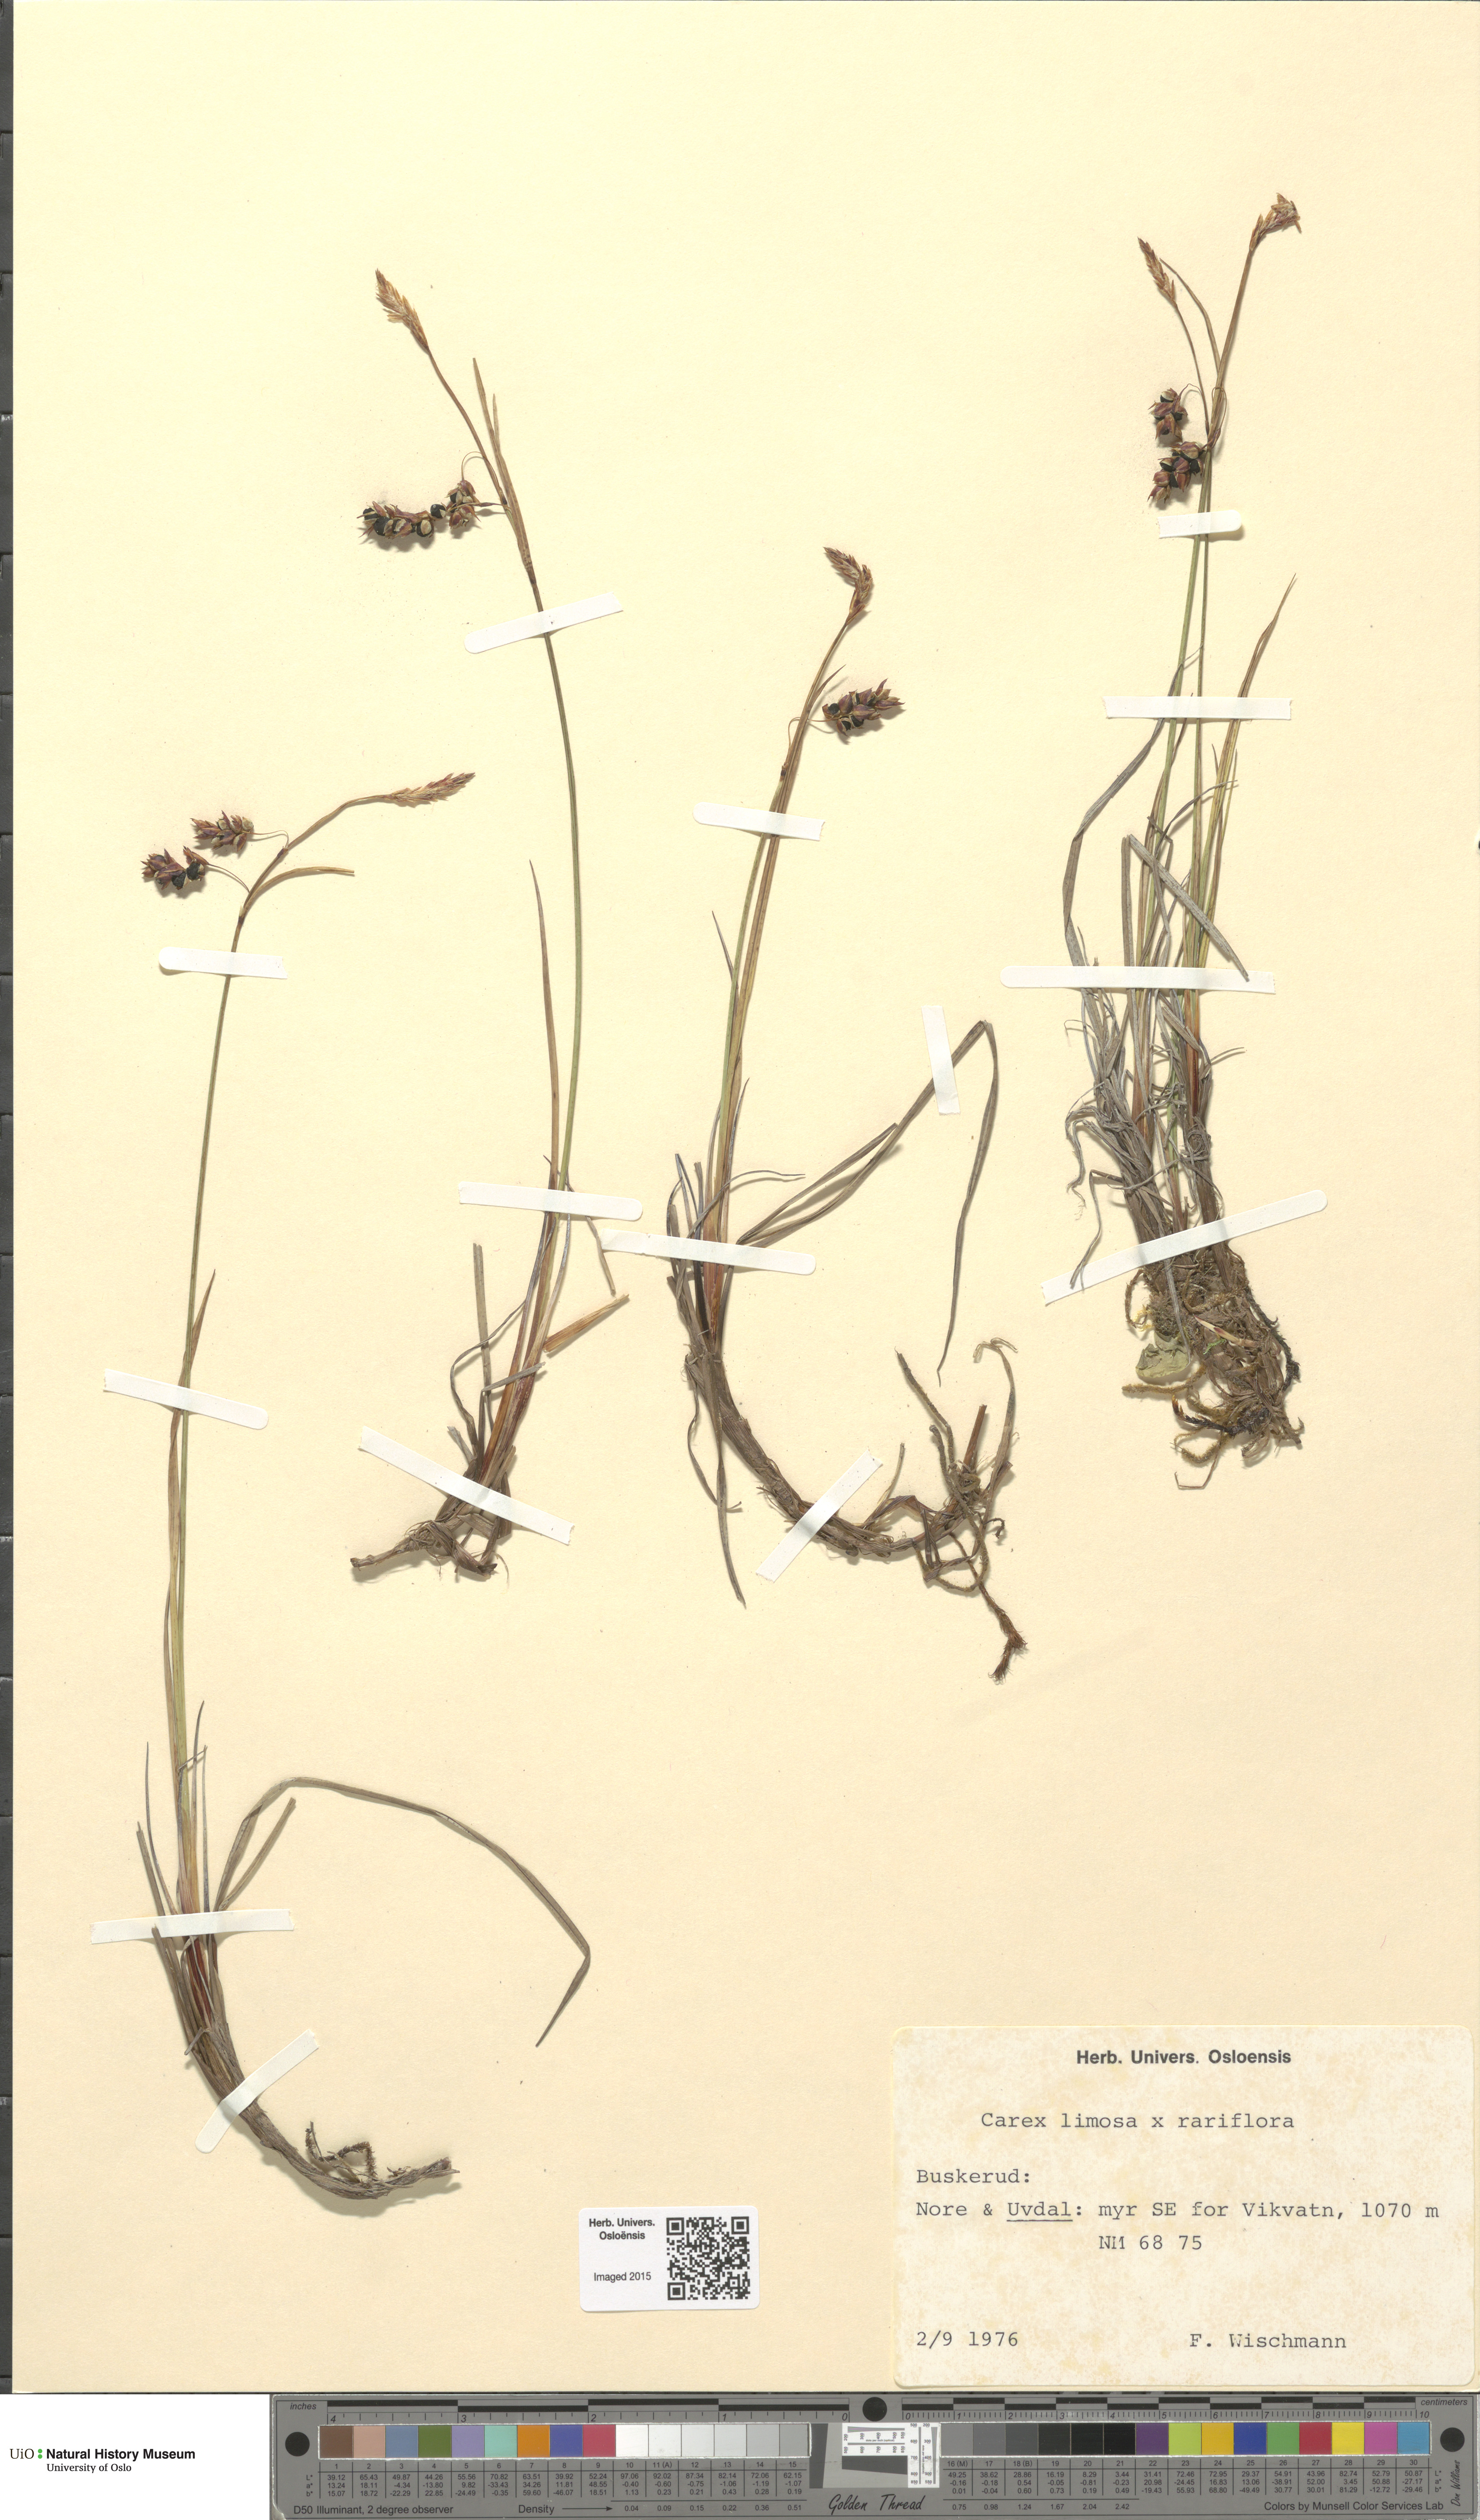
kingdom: Plantae
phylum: Tracheophyta
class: Liliopsida
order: Poales
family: Cyperaceae
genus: Carex
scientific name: Carex limosa
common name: Bog sedge
